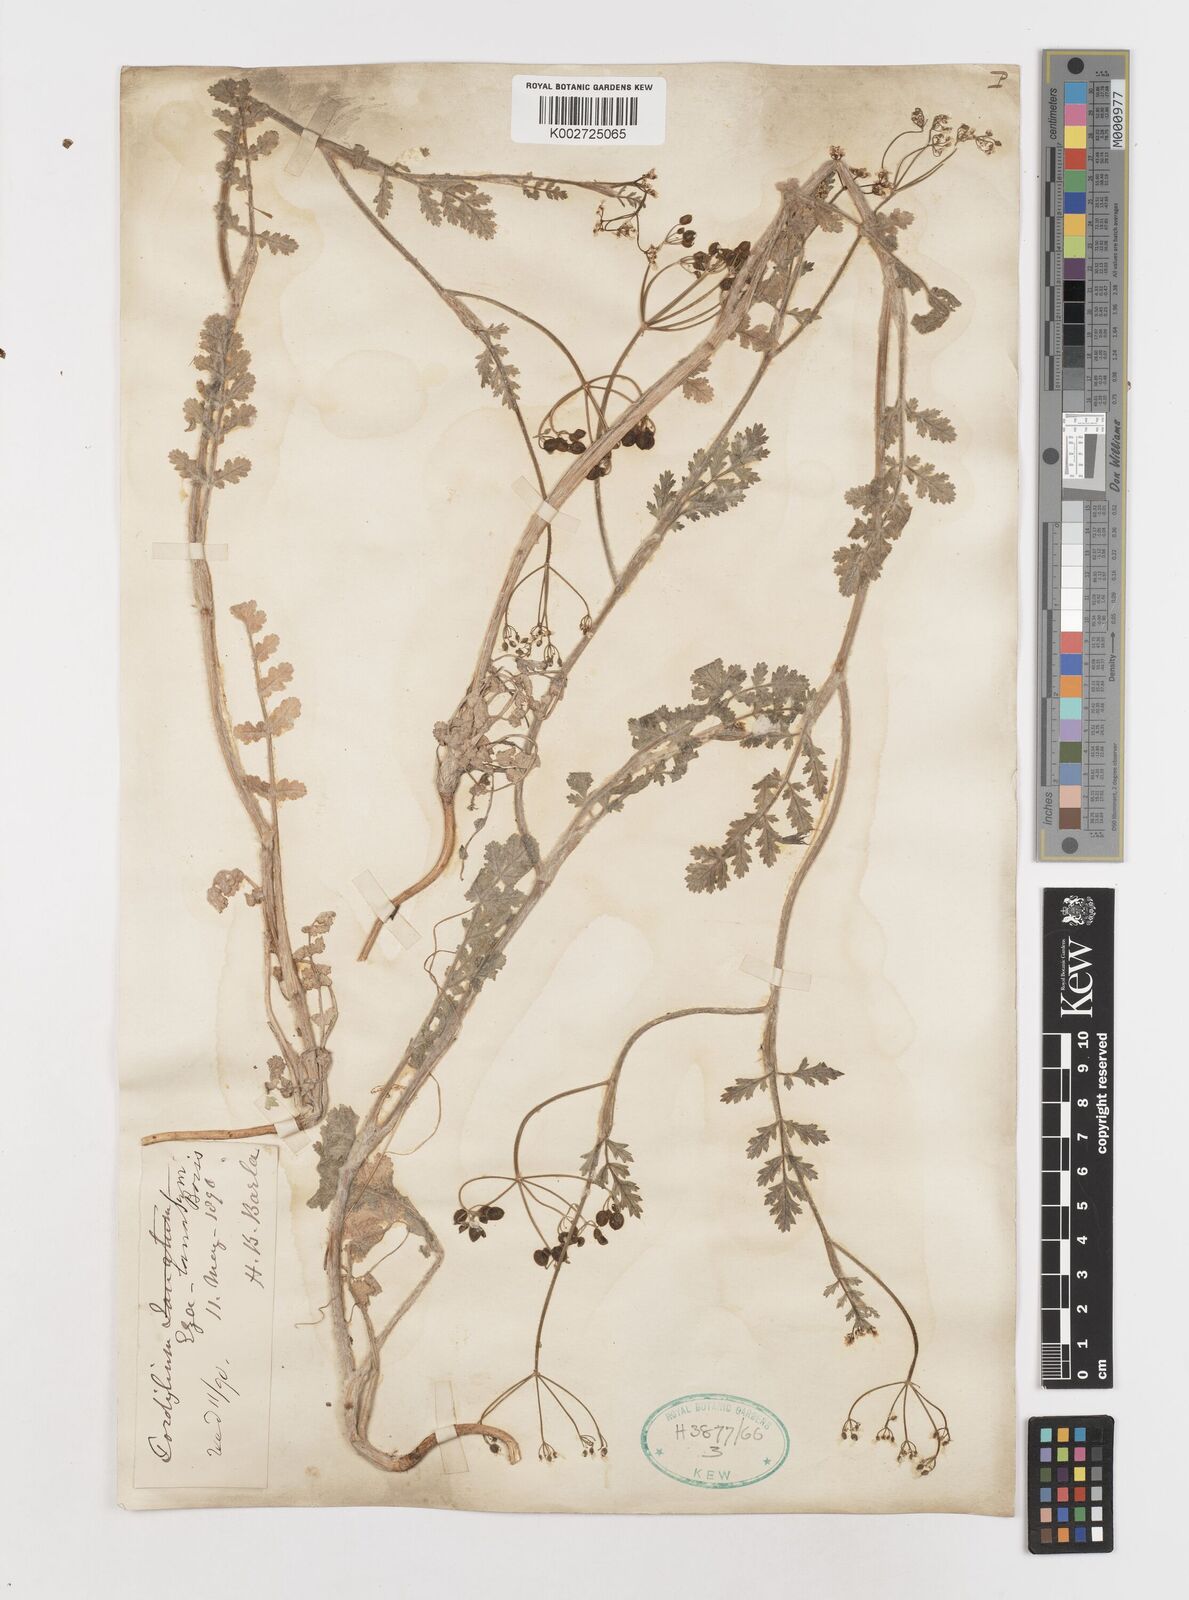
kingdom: Plantae
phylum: Tracheophyta
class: Magnoliopsida
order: Apiales
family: Apiaceae
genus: Tordylium
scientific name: Tordylium lanatum
